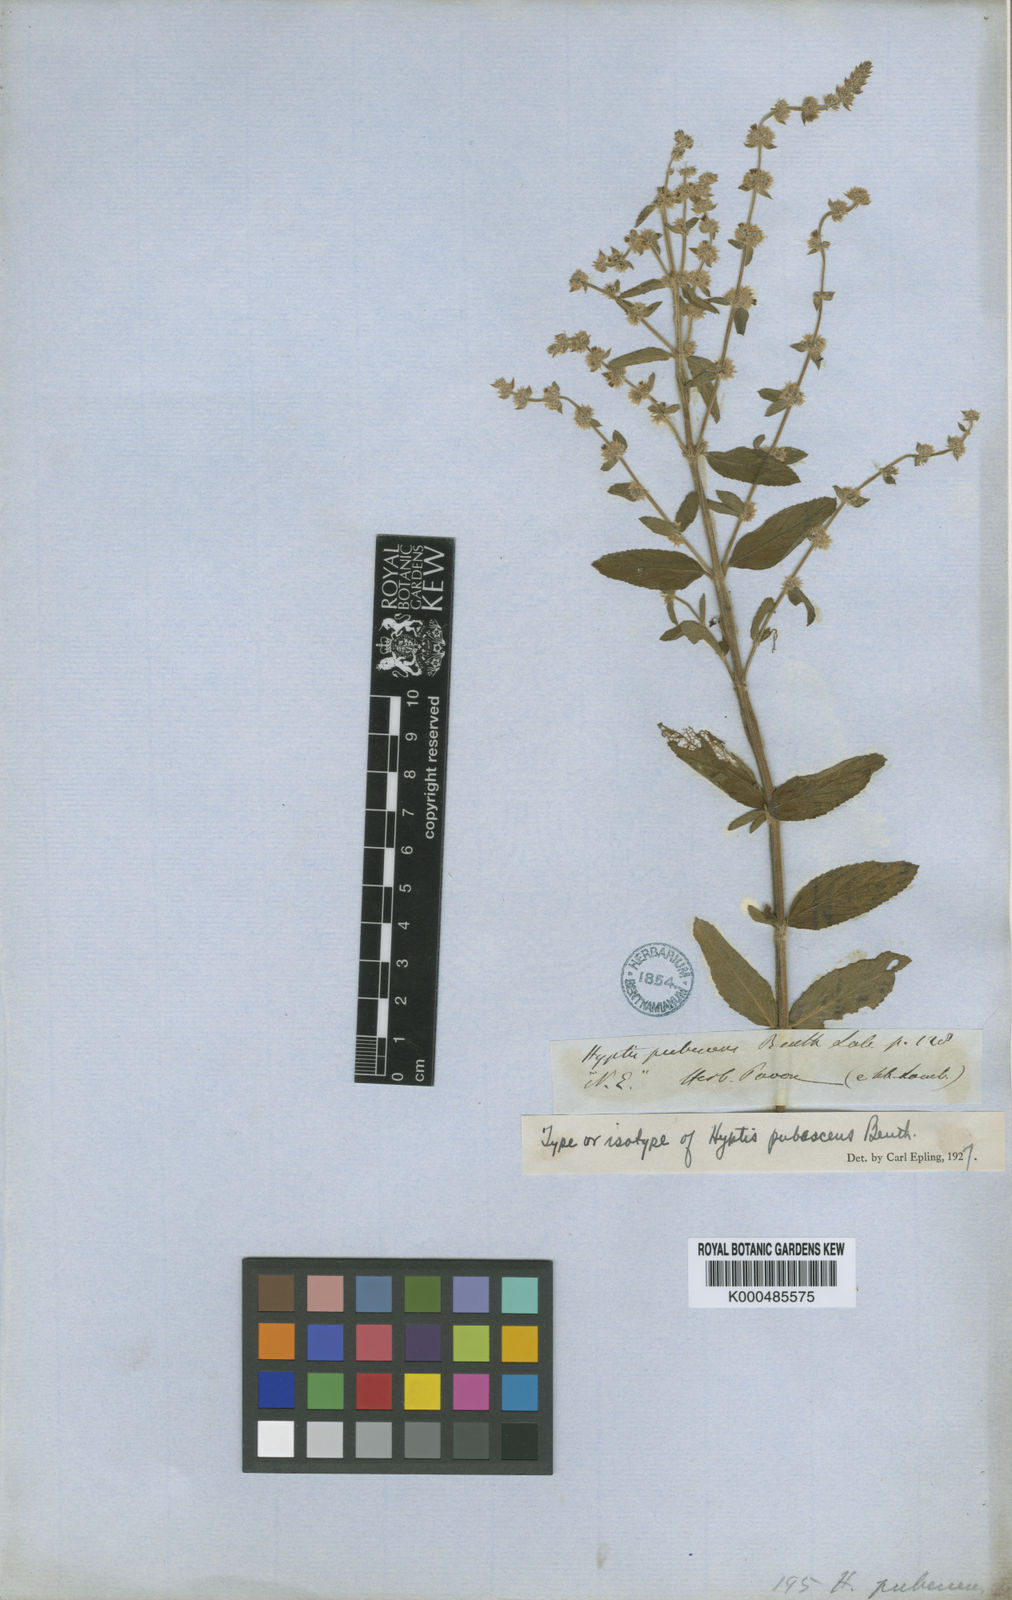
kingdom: Plantae
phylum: Tracheophyta
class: Magnoliopsida
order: Lamiales
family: Lamiaceae
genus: Asterohyptis
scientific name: Asterohyptis stellulata
